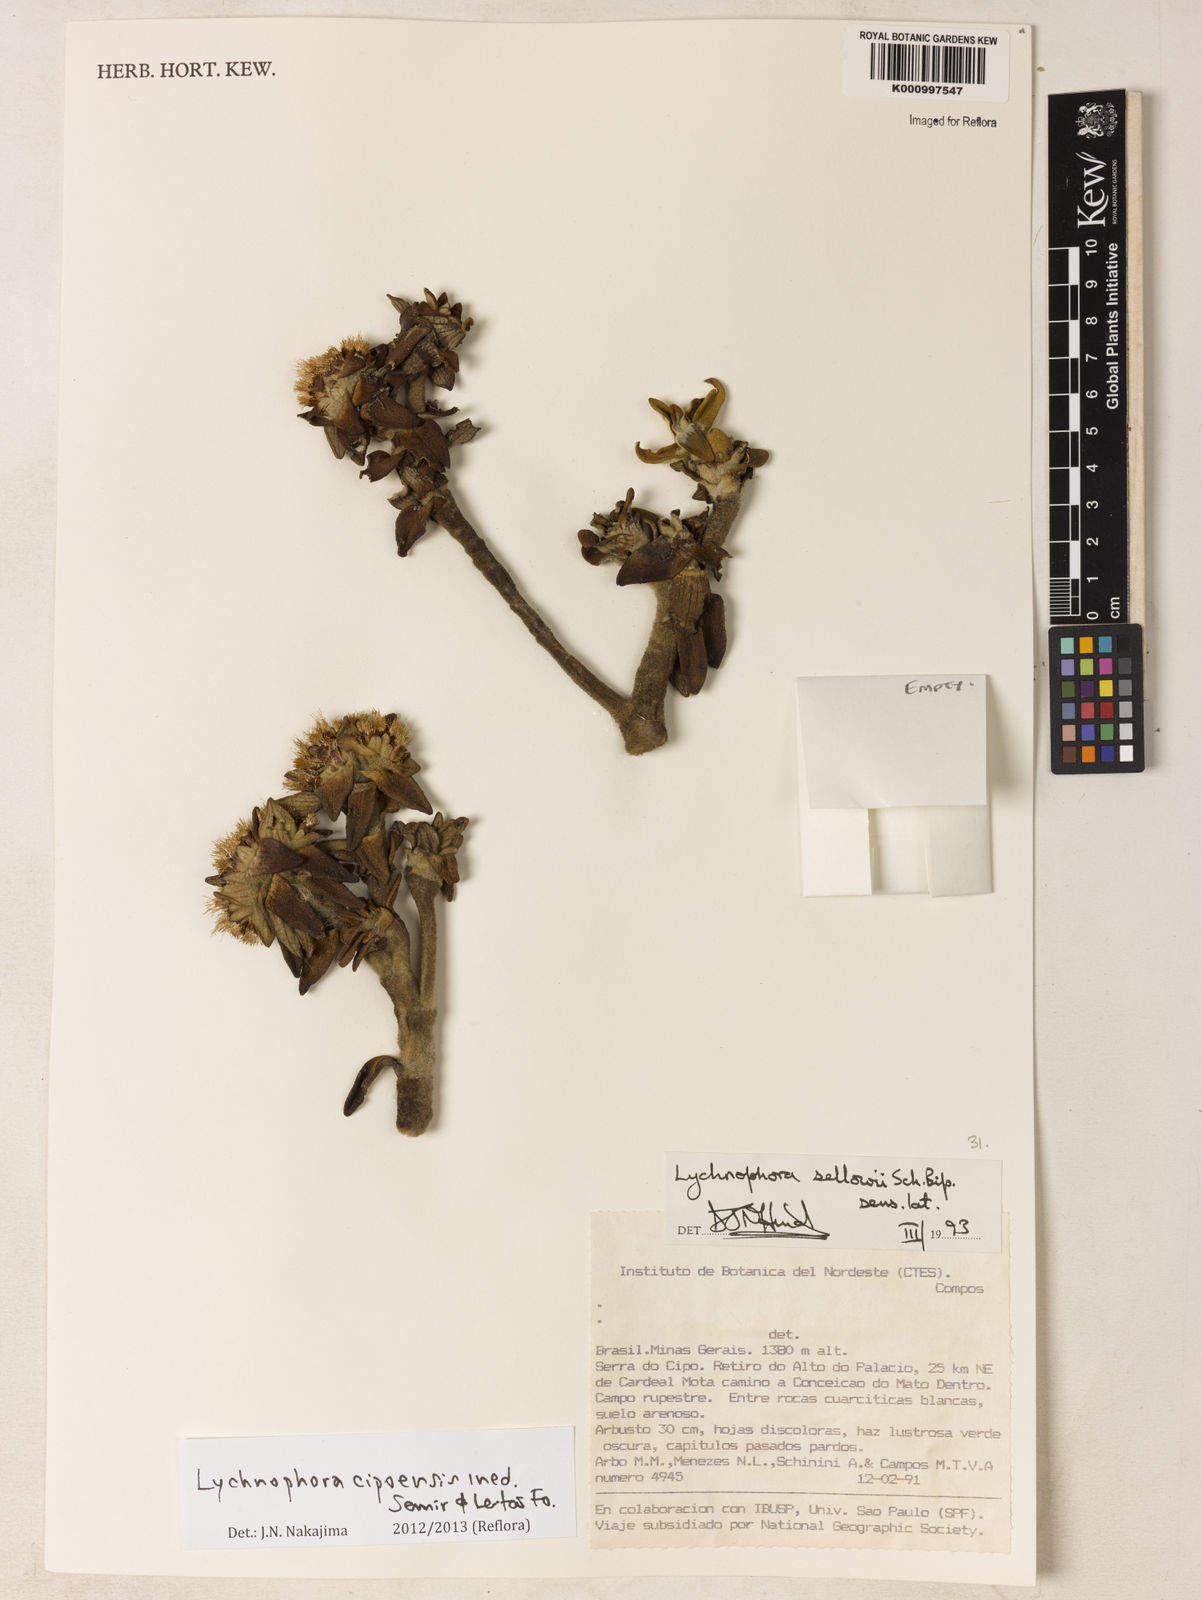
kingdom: Plantae
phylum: Tracheophyta
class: Magnoliopsida
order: Asterales
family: Asteraceae
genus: Lychnophora
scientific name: Lychnophora
